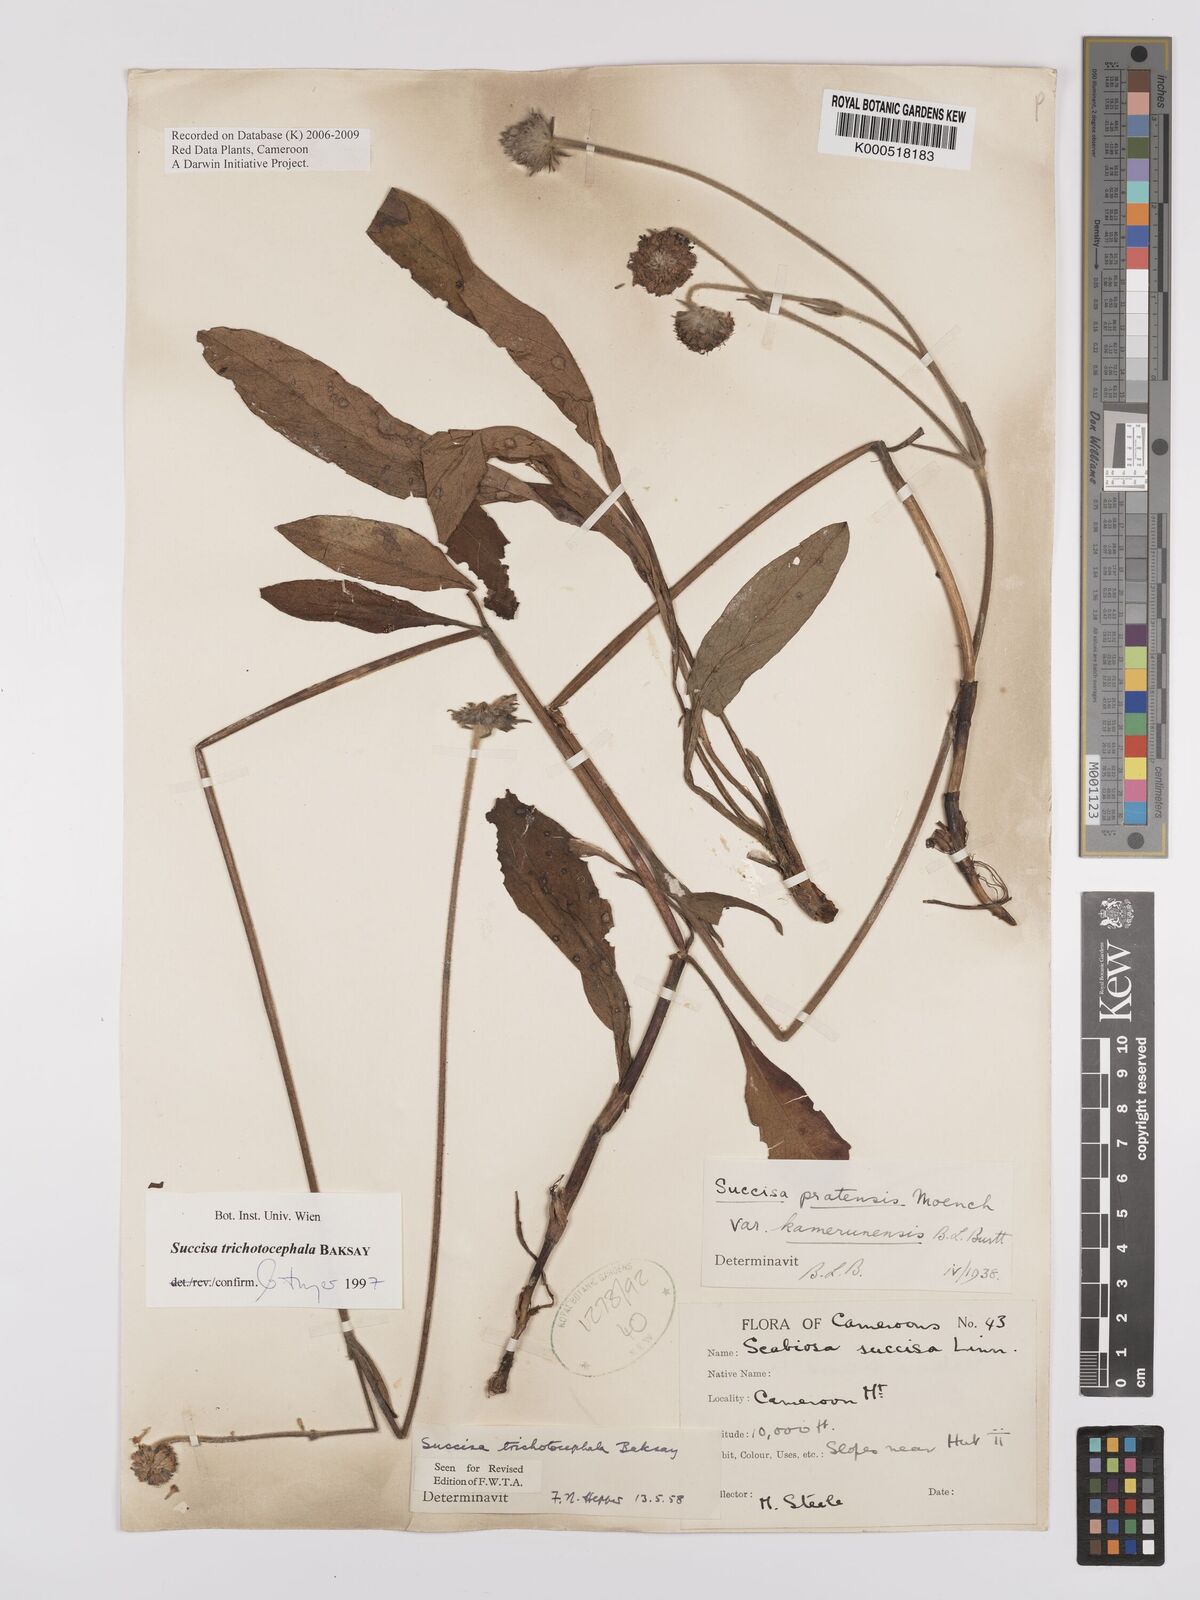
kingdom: Plantae
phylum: Tracheophyta
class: Magnoliopsida
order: Dipsacales
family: Caprifoliaceae
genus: Succisa
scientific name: Succisa trichotocephala
